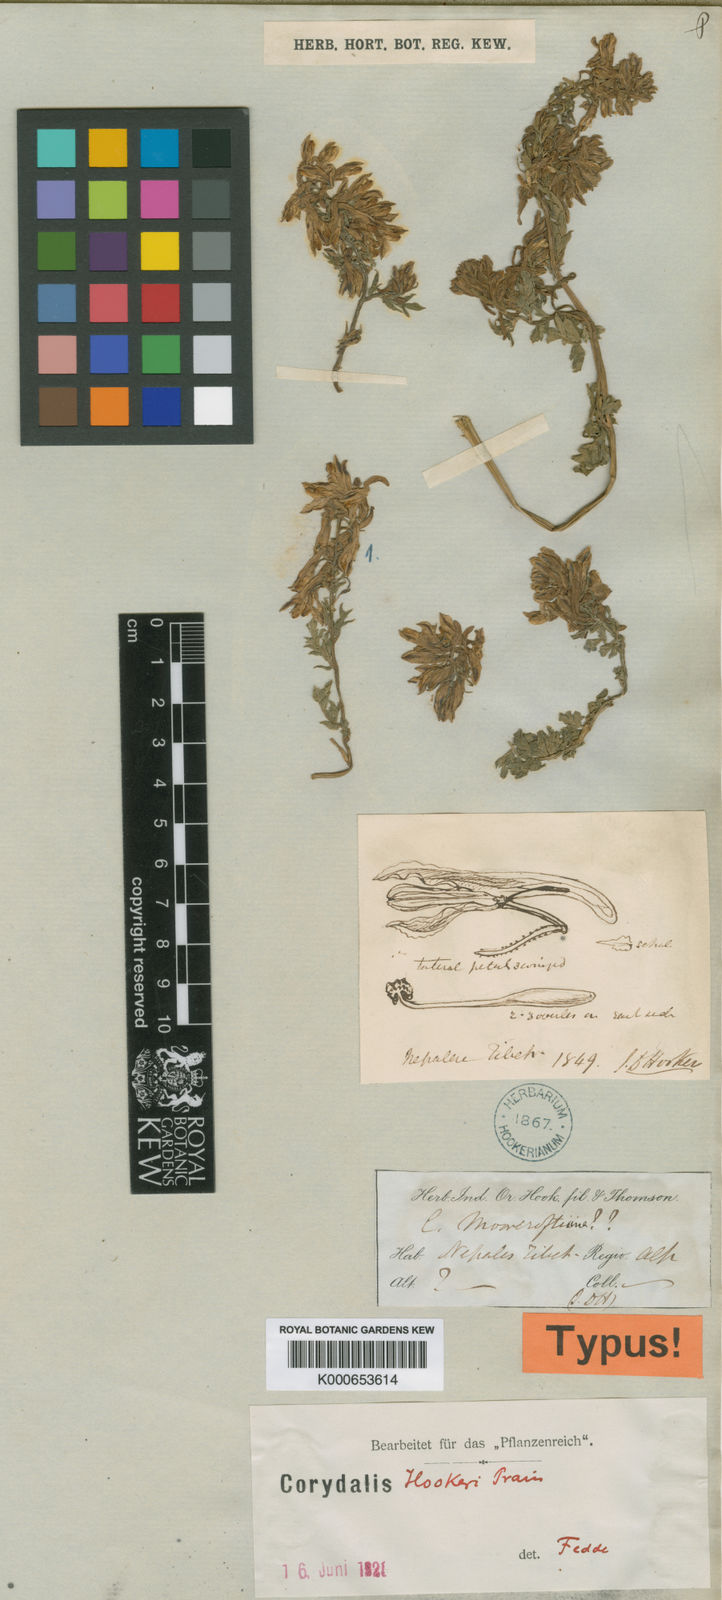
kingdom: Plantae
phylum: Tracheophyta
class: Magnoliopsida
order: Ranunculales
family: Papaveraceae
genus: Corydalis
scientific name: Corydalis hookeri
